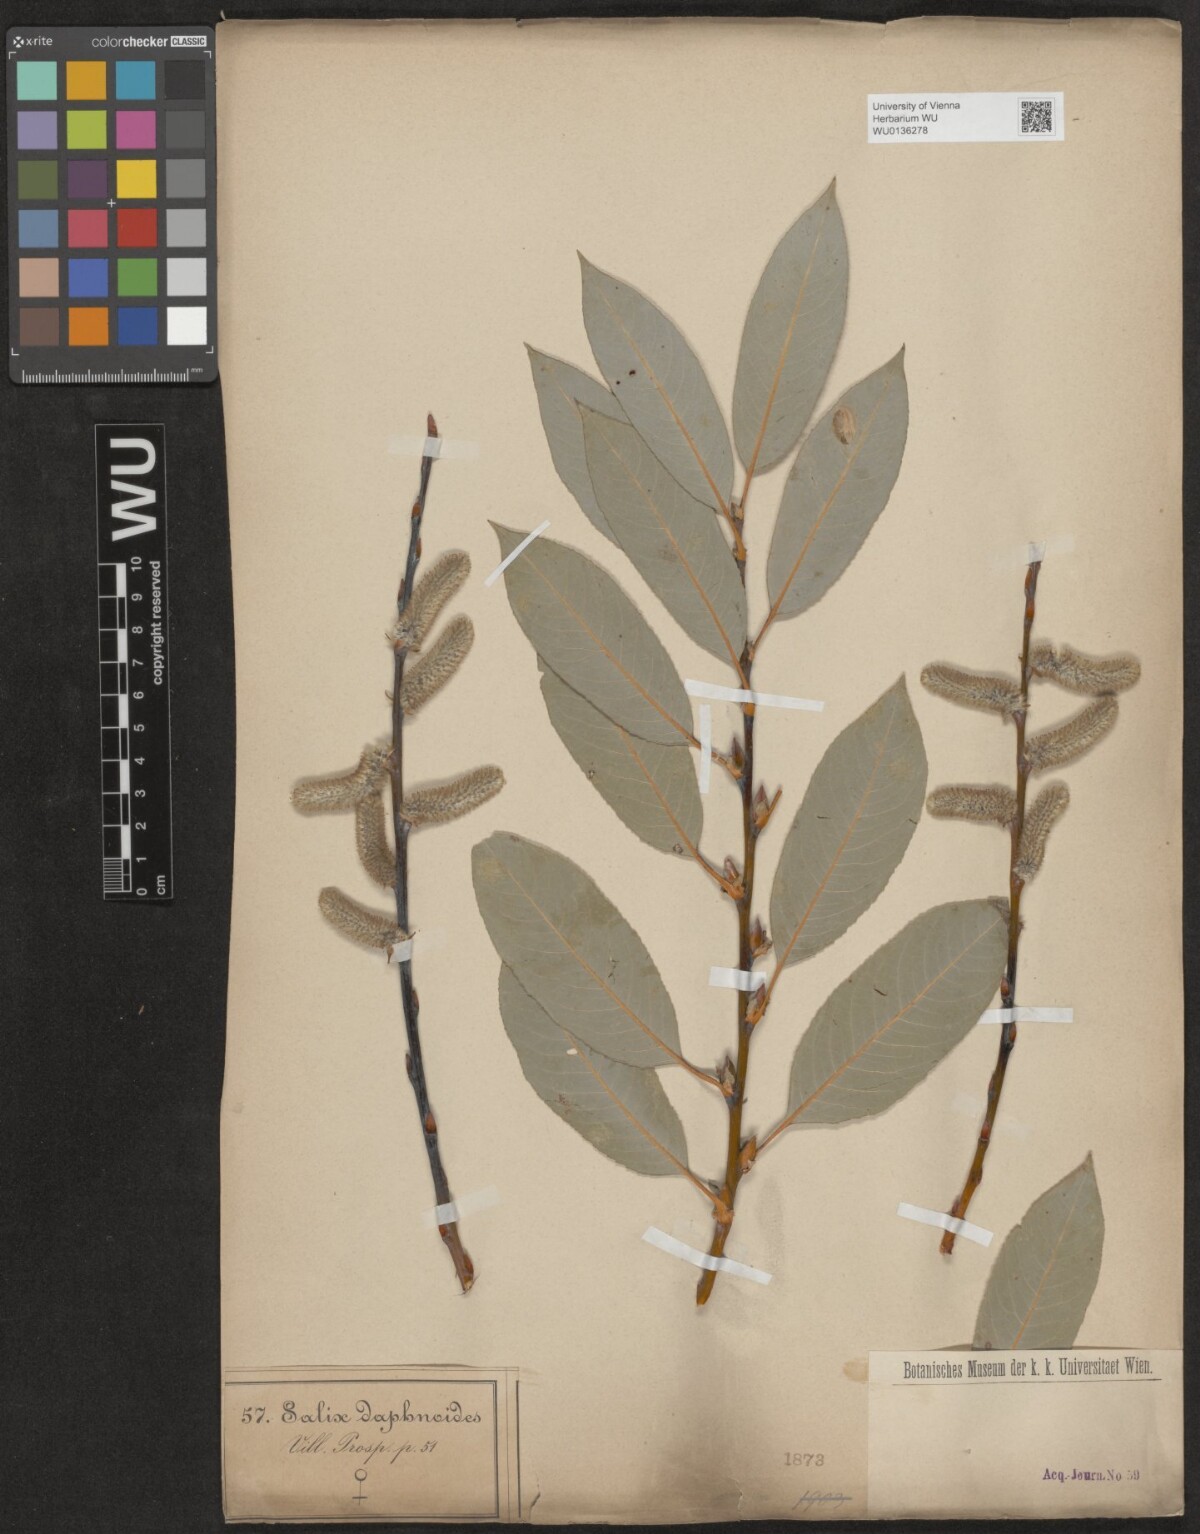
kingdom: Plantae
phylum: Tracheophyta
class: Magnoliopsida
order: Malpighiales
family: Salicaceae
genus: Salix
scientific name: Salix daphnoides
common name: European violet-willow
